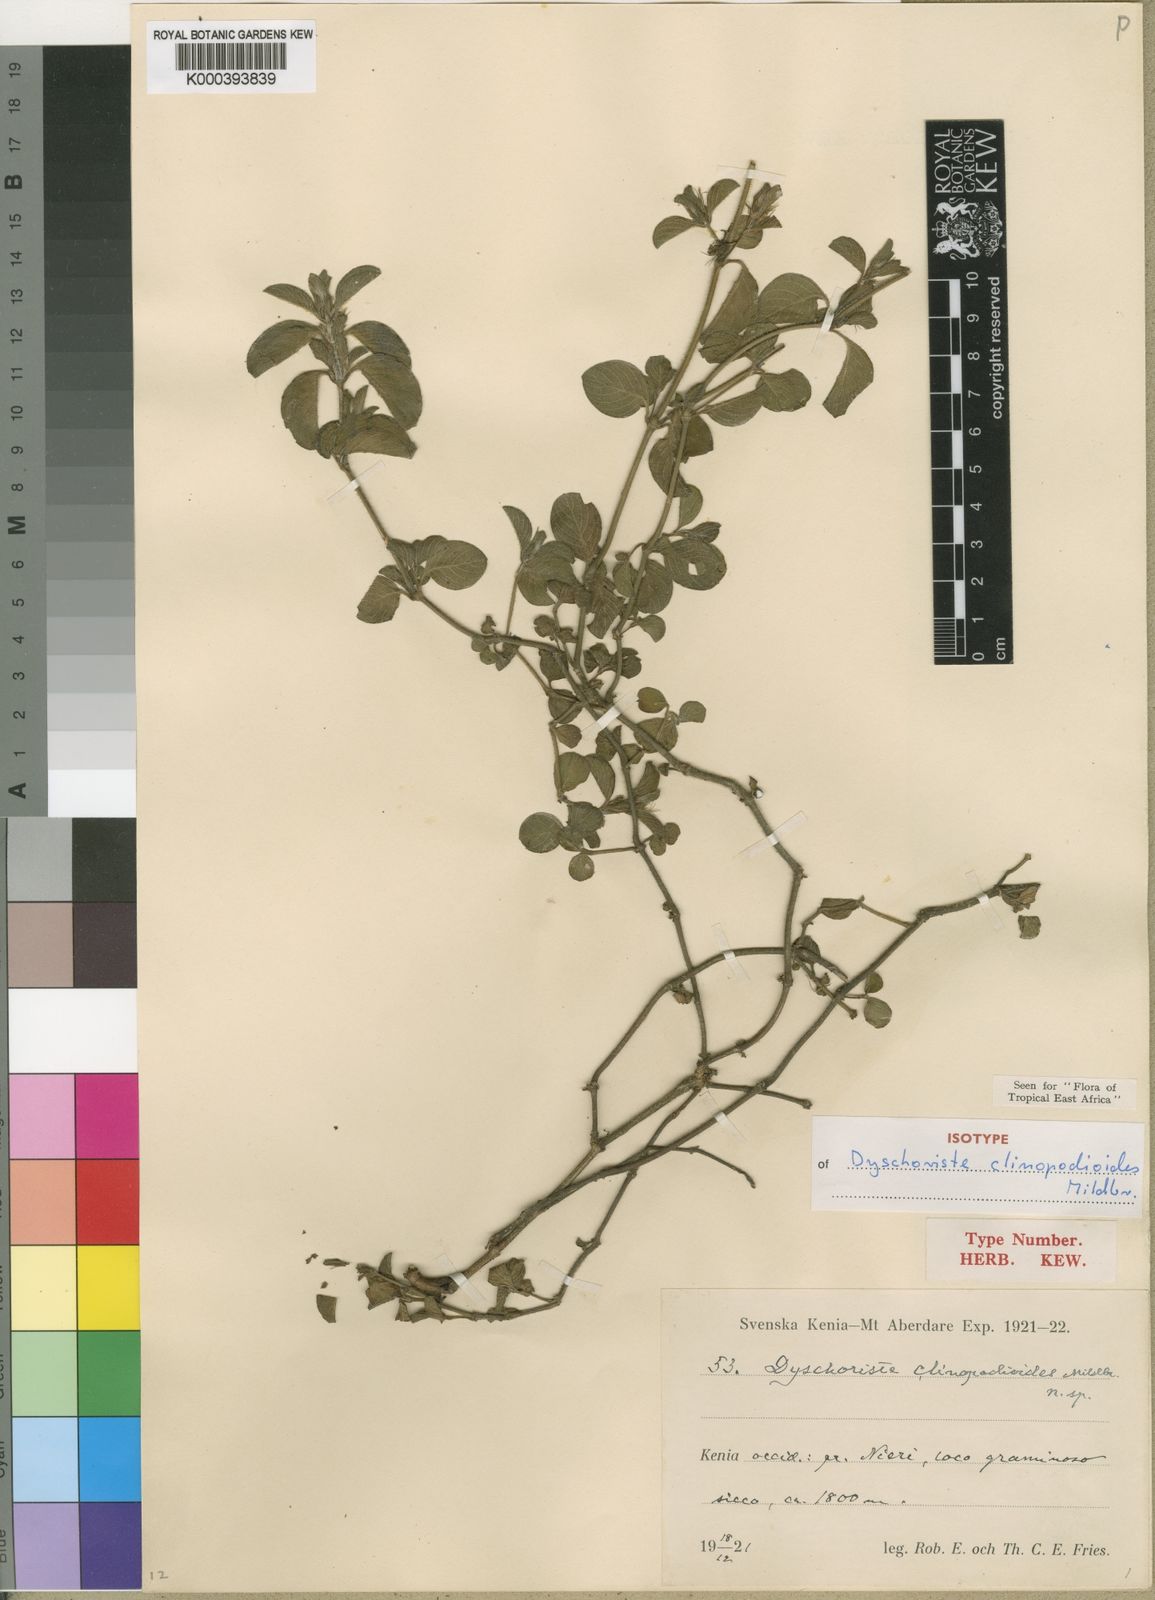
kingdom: Plantae
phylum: Tracheophyta
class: Magnoliopsida
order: Lamiales
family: Acanthaceae
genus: Dyschoriste
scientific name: Dyschoriste multicaulis
